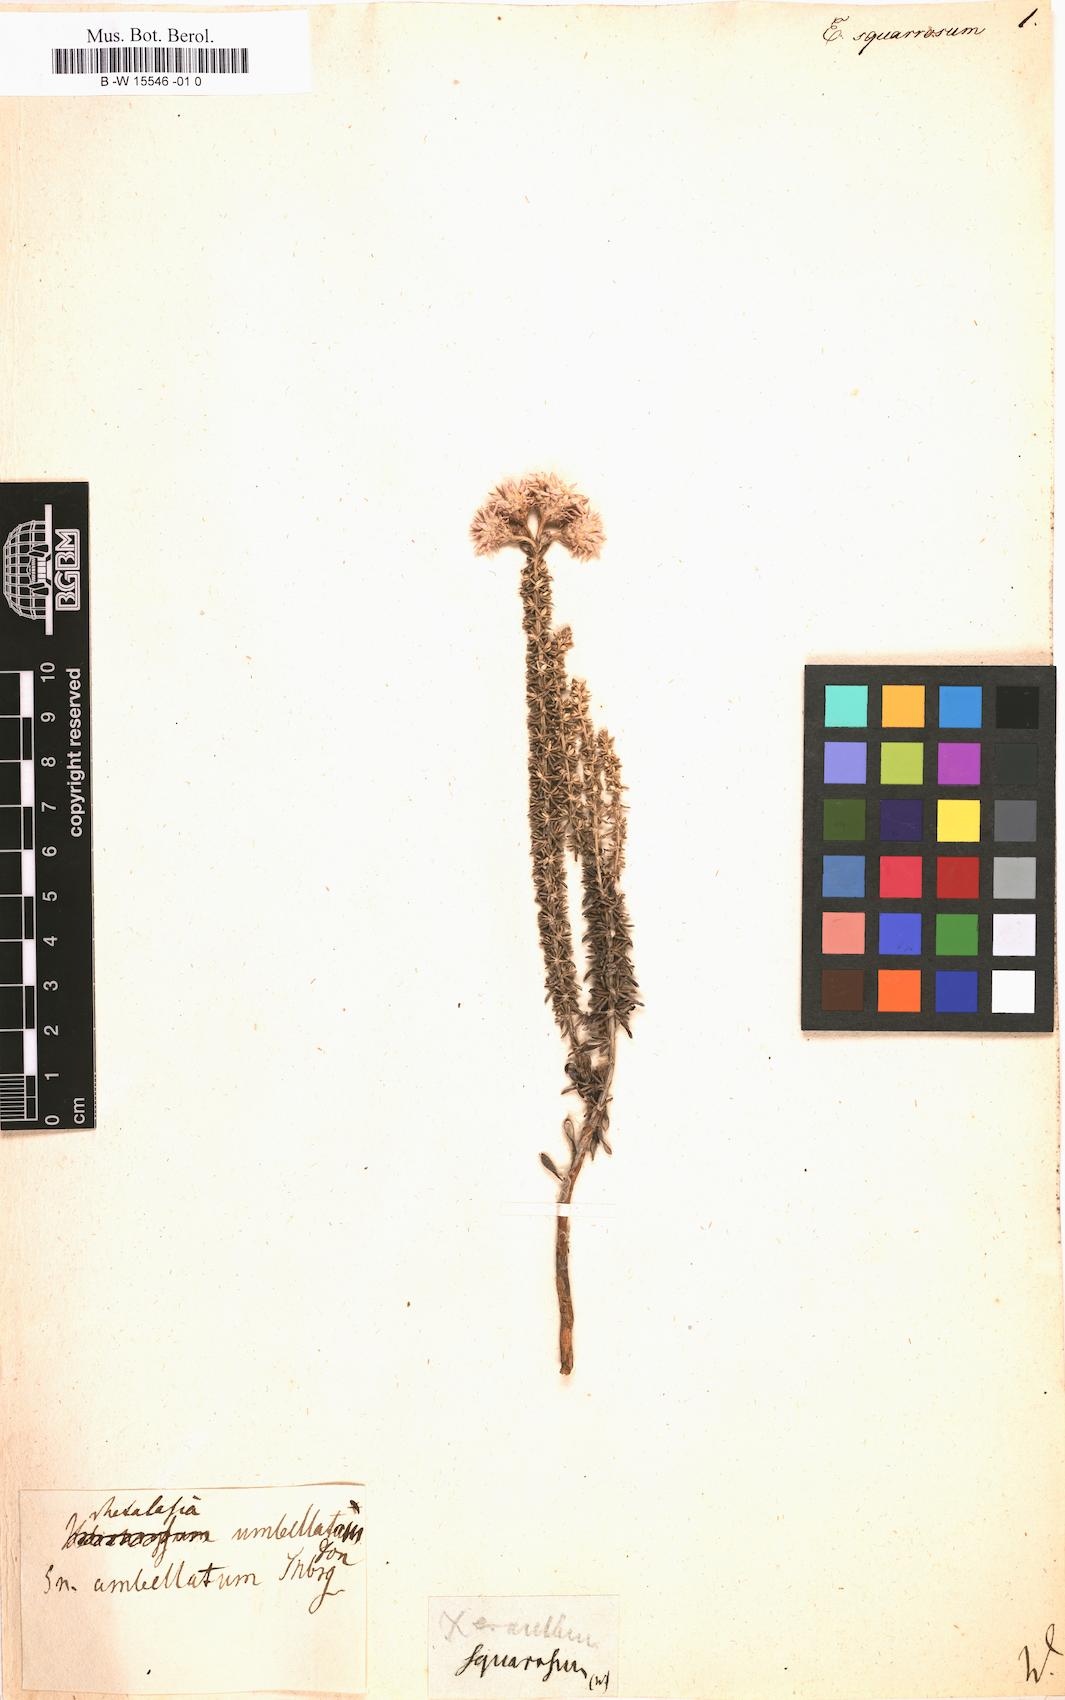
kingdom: Plantae
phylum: Tracheophyta
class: Magnoliopsida
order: Asterales
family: Asteraceae
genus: Helichrysum
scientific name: Helichrysum
